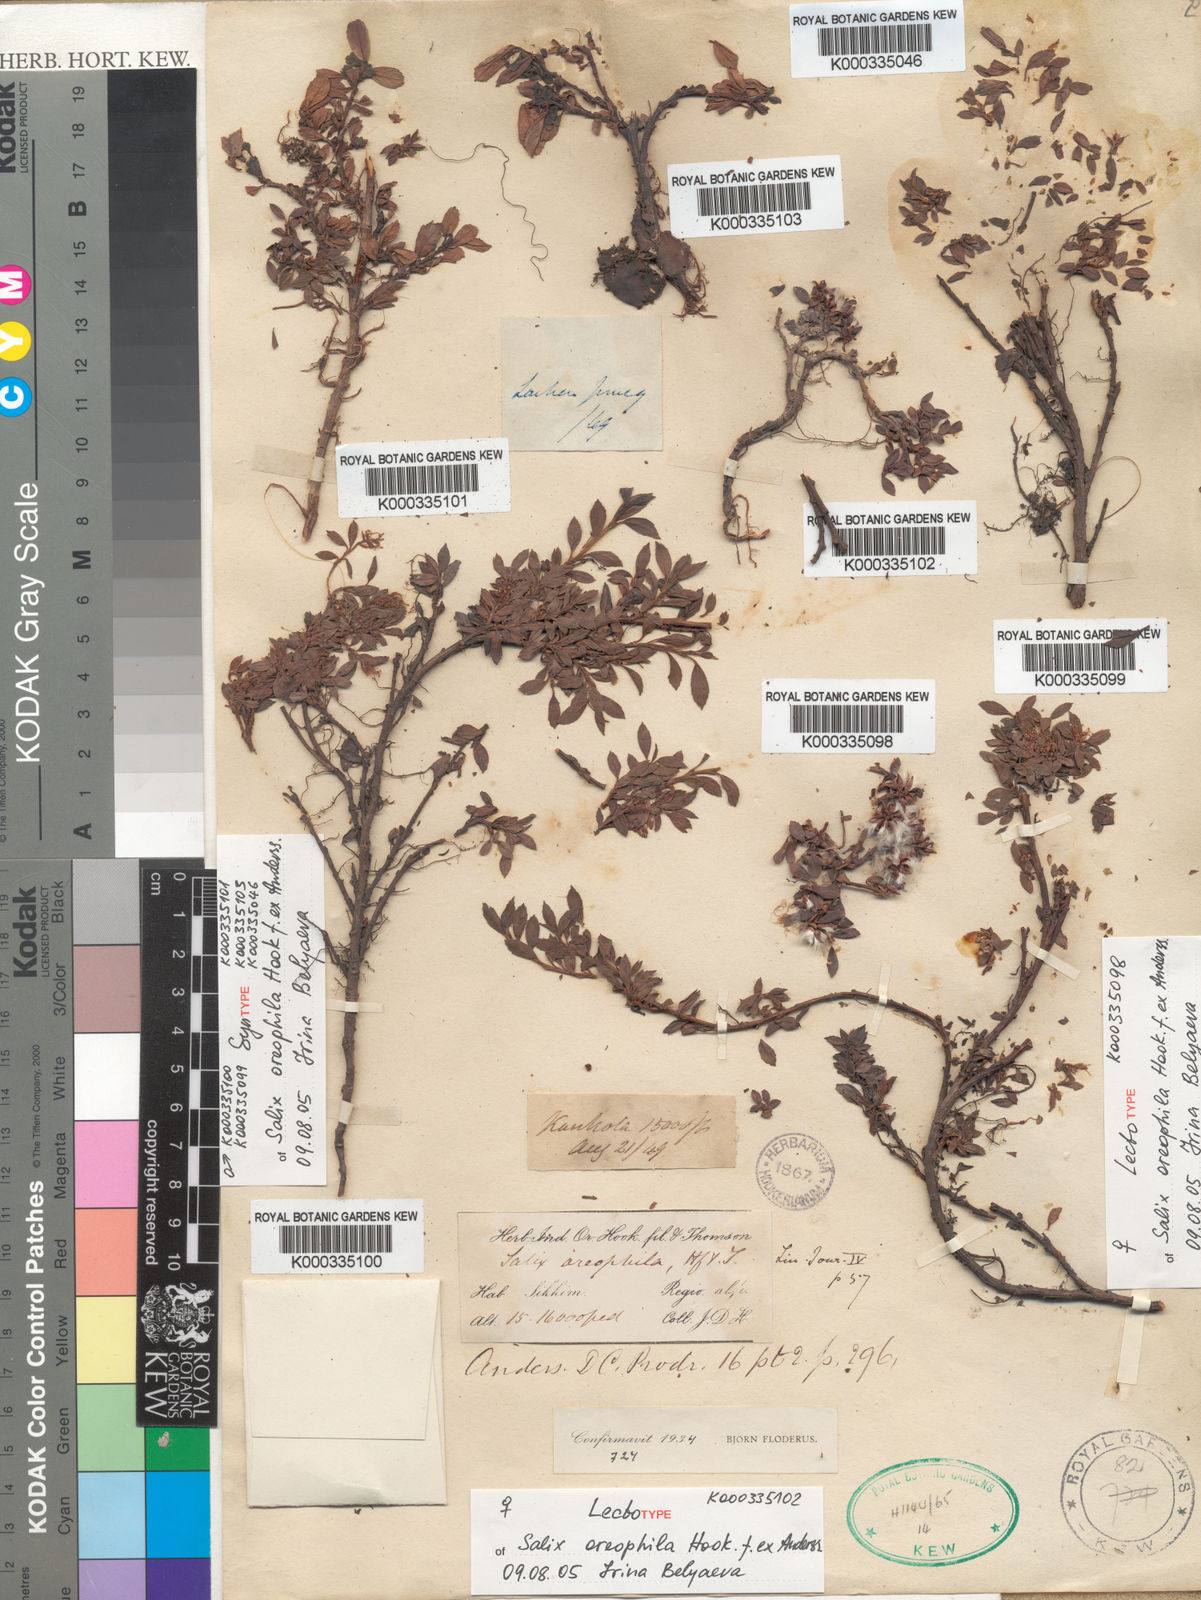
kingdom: Plantae
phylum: Tracheophyta
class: Magnoliopsida
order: Malpighiales
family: Salicaceae
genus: Salix
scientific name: Salix oreophila
